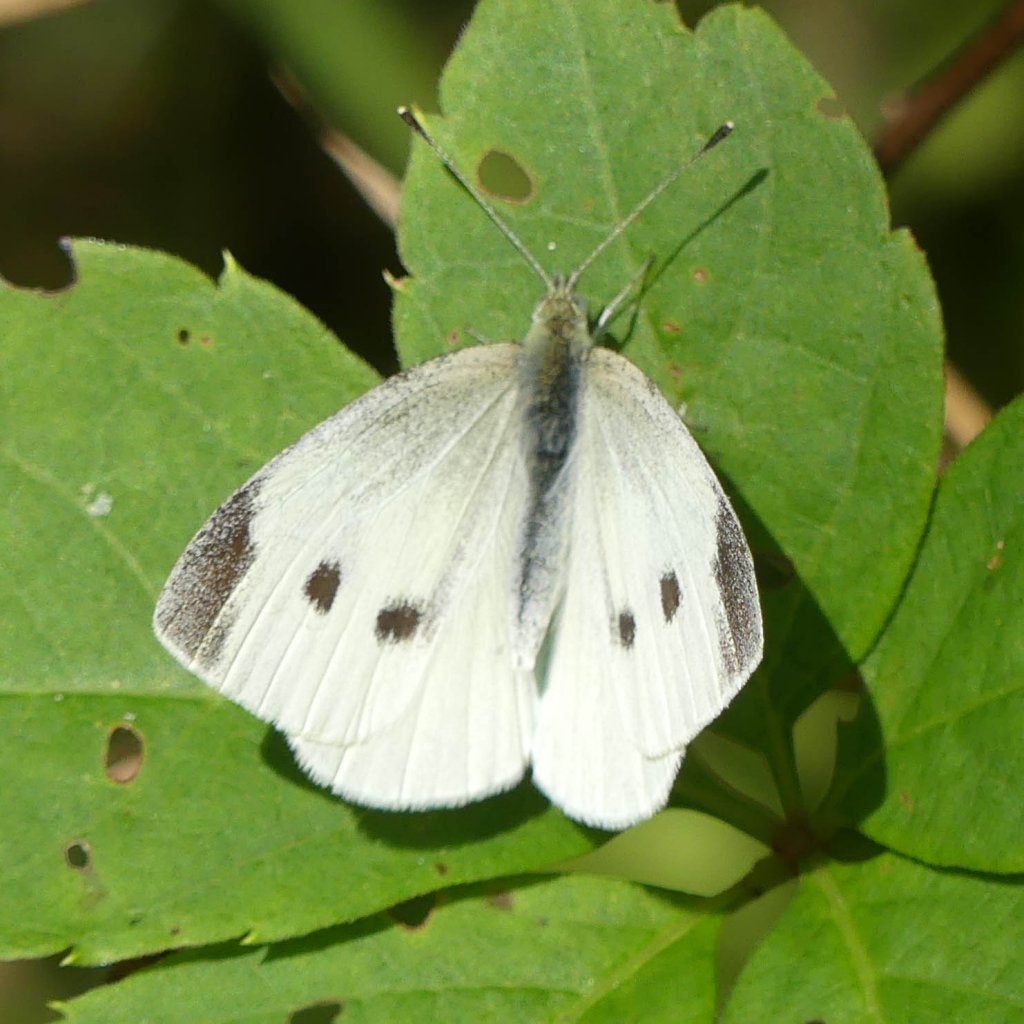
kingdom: Animalia
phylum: Arthropoda
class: Insecta
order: Lepidoptera
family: Pieridae
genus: Pieris
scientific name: Pieris rapae
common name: Cabbage White
